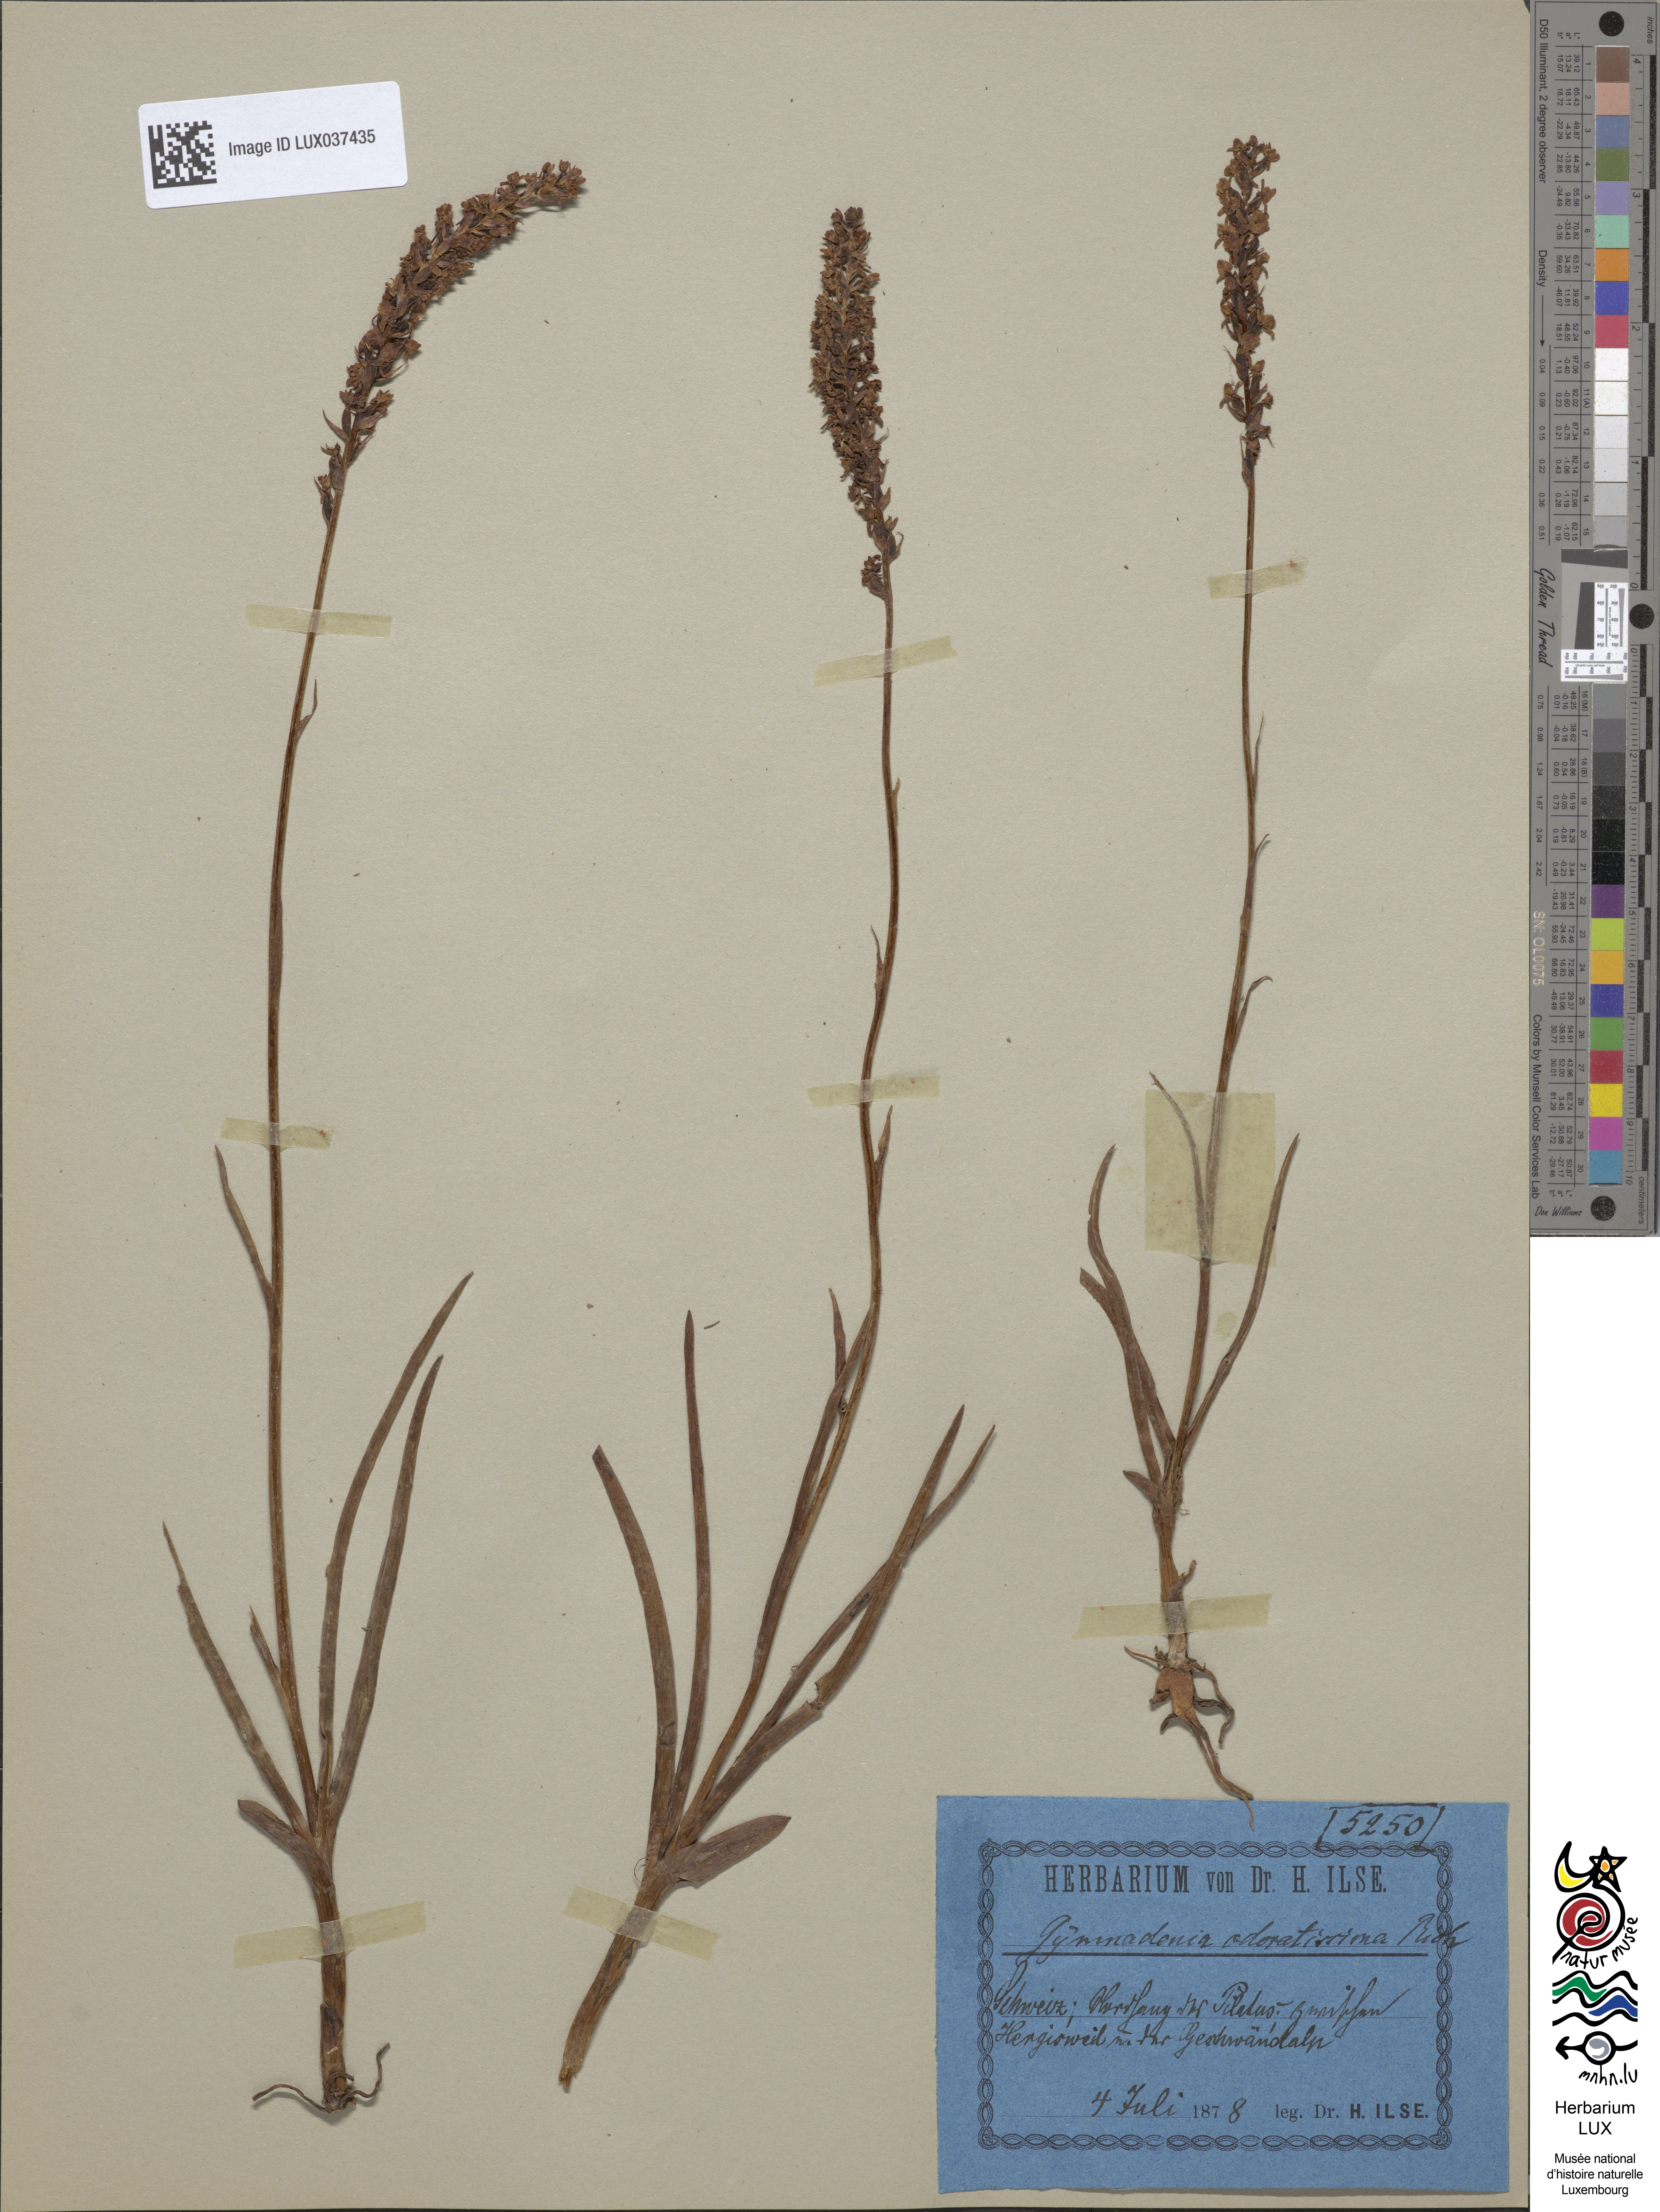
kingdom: Plantae
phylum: Tracheophyta
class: Liliopsida
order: Asparagales
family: Orchidaceae
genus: Gymnadenia
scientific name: Gymnadenia odoratissima
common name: Scented gymnadenia
